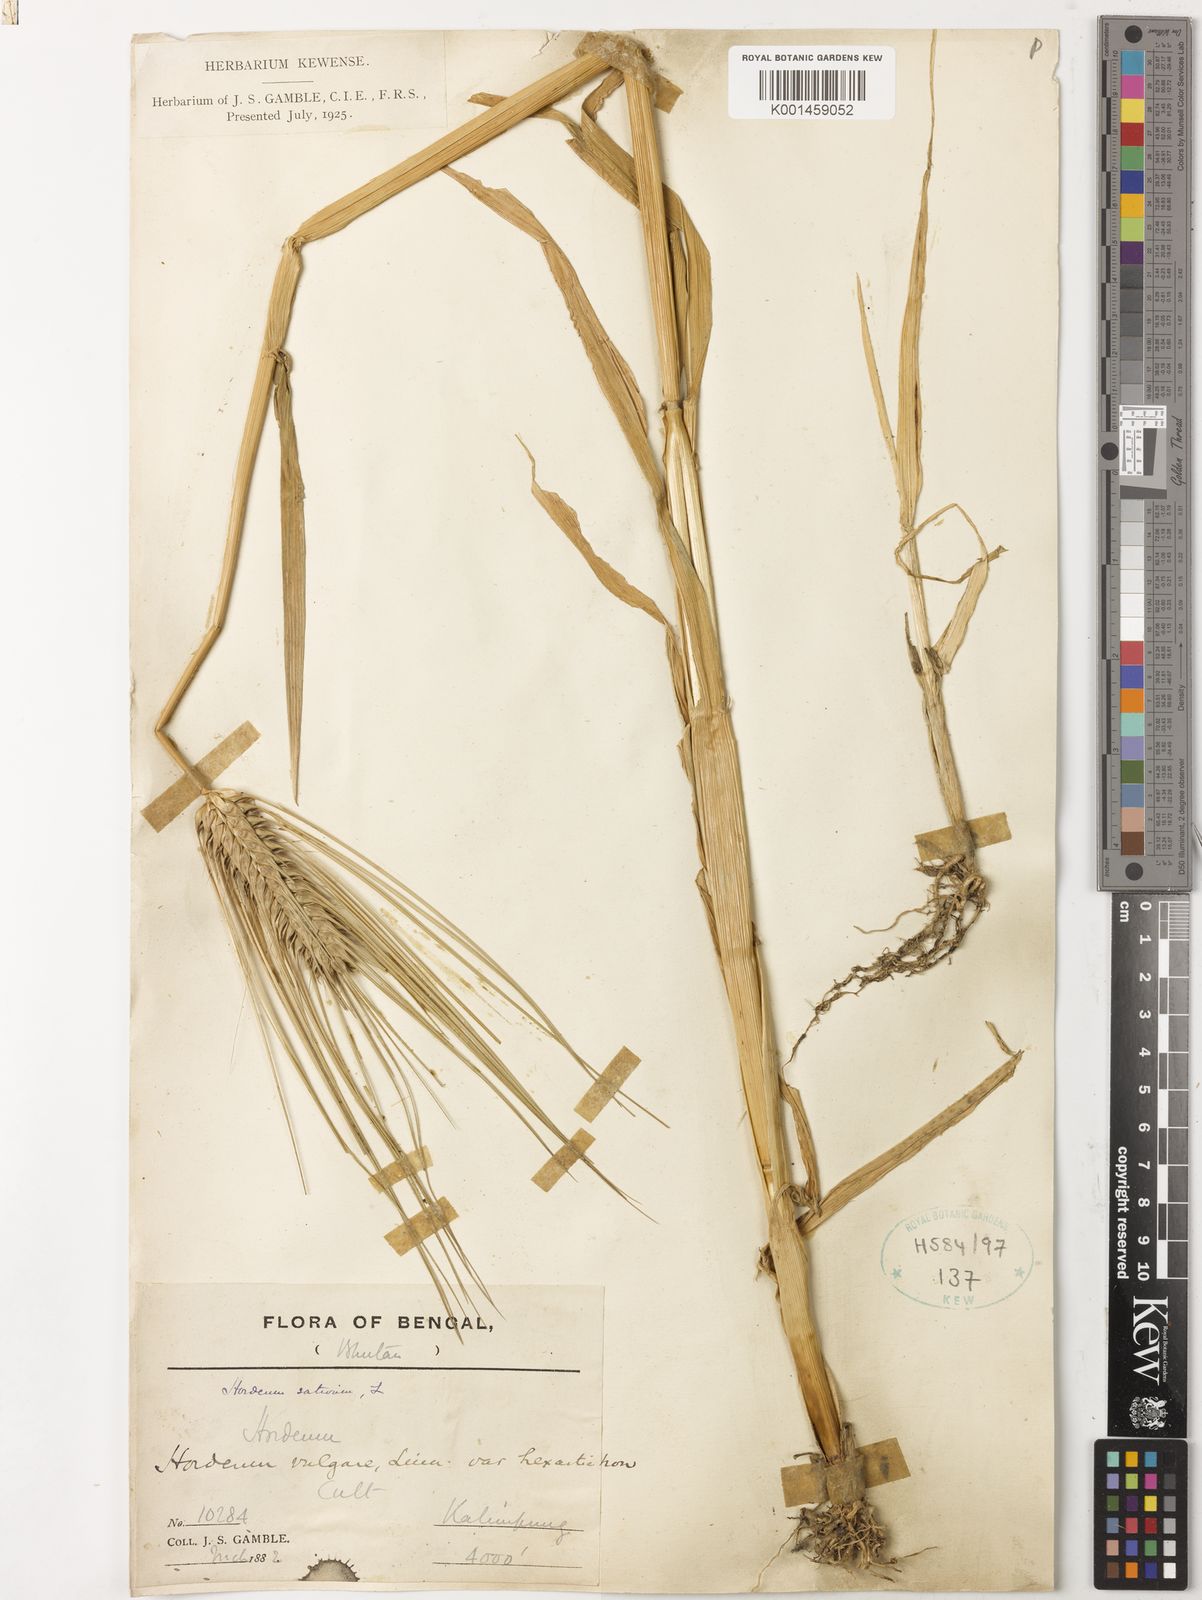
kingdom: Plantae
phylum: Tracheophyta
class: Liliopsida
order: Poales
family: Poaceae
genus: Hordeum
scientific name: Hordeum vulgare
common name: Common barley
